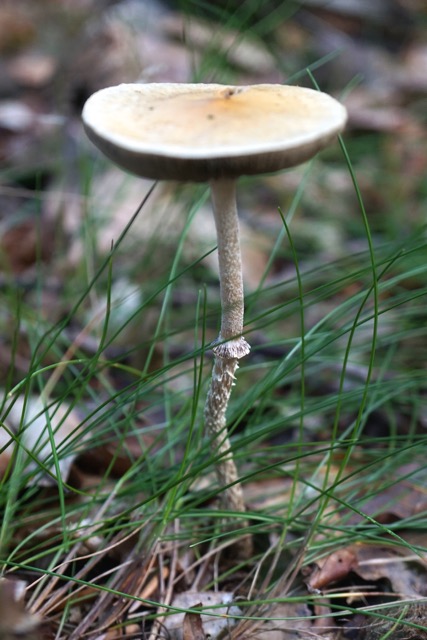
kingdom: Fungi
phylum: Basidiomycota
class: Agaricomycetes
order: Agaricales
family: Strophariaceae
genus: Leratiomyces
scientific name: Leratiomyces squamosus
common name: skællet bredblad
